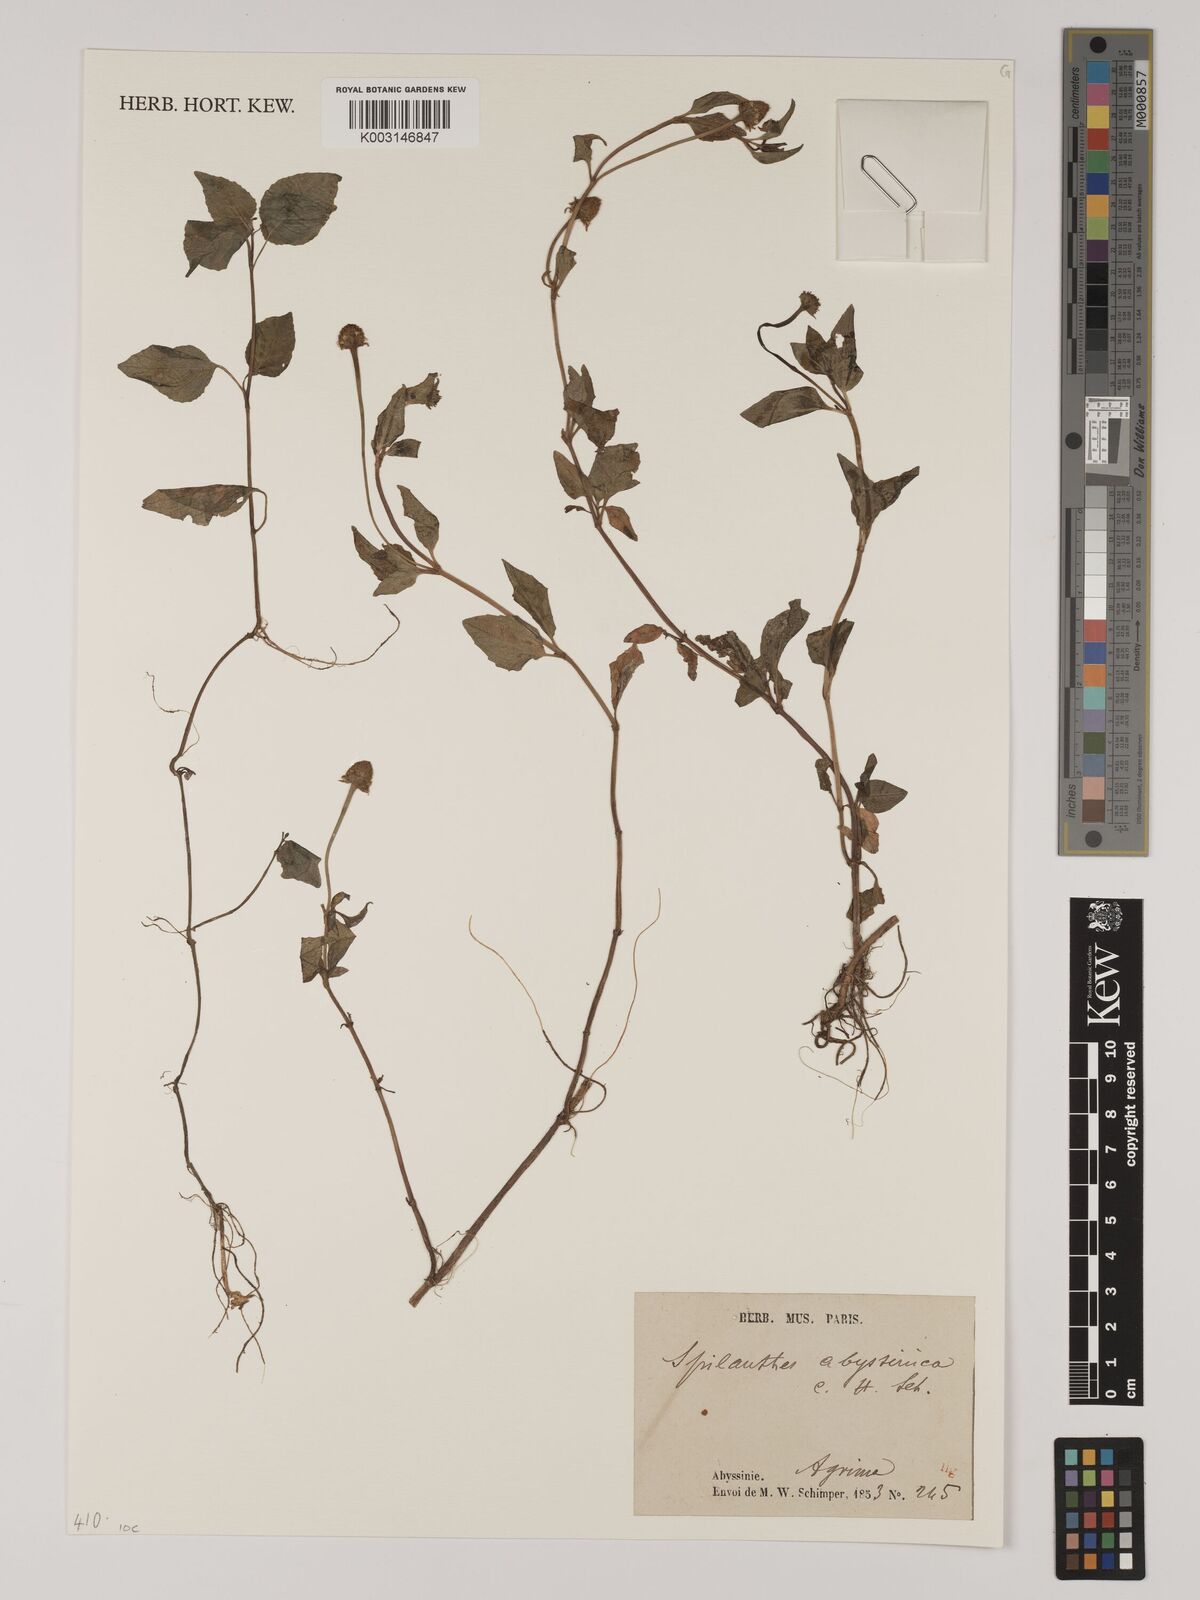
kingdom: Plantae
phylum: Tracheophyta
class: Magnoliopsida
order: Asterales
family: Asteraceae
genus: Acmella
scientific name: Acmella caulirhiza
